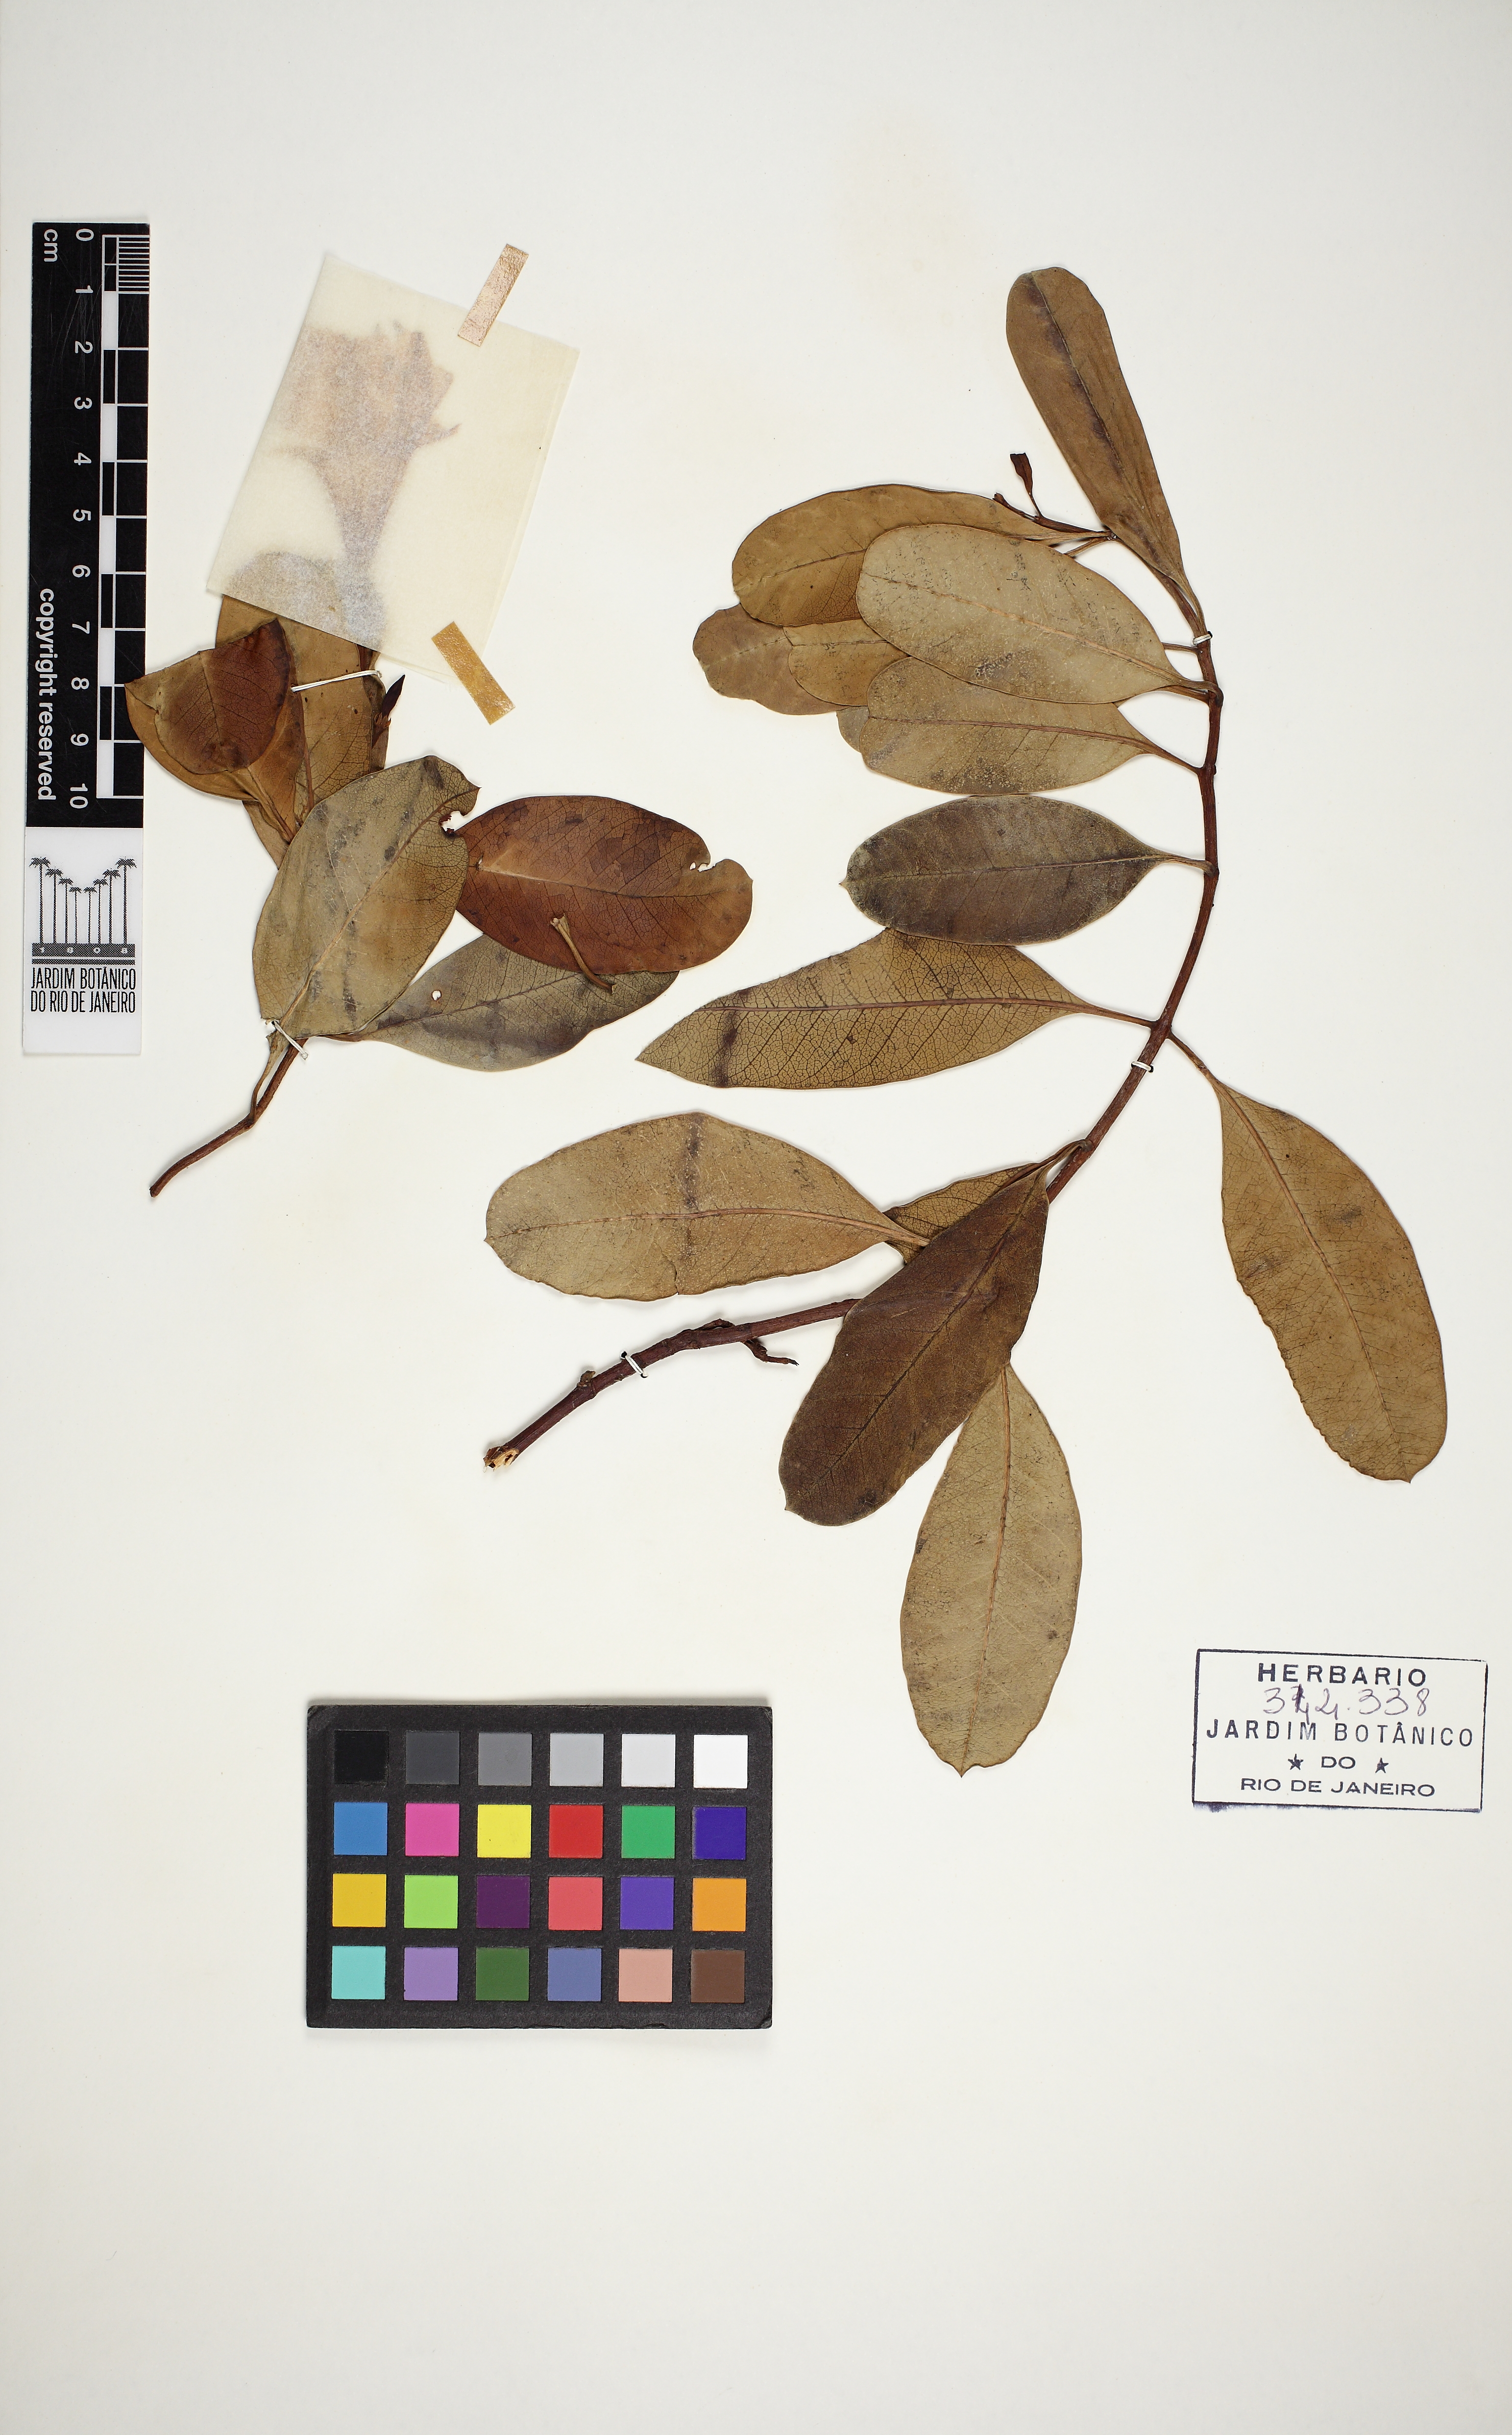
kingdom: Plantae
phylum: Tracheophyta
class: Magnoliopsida
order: Gentianales
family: Apocynaceae
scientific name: Apocynaceae
